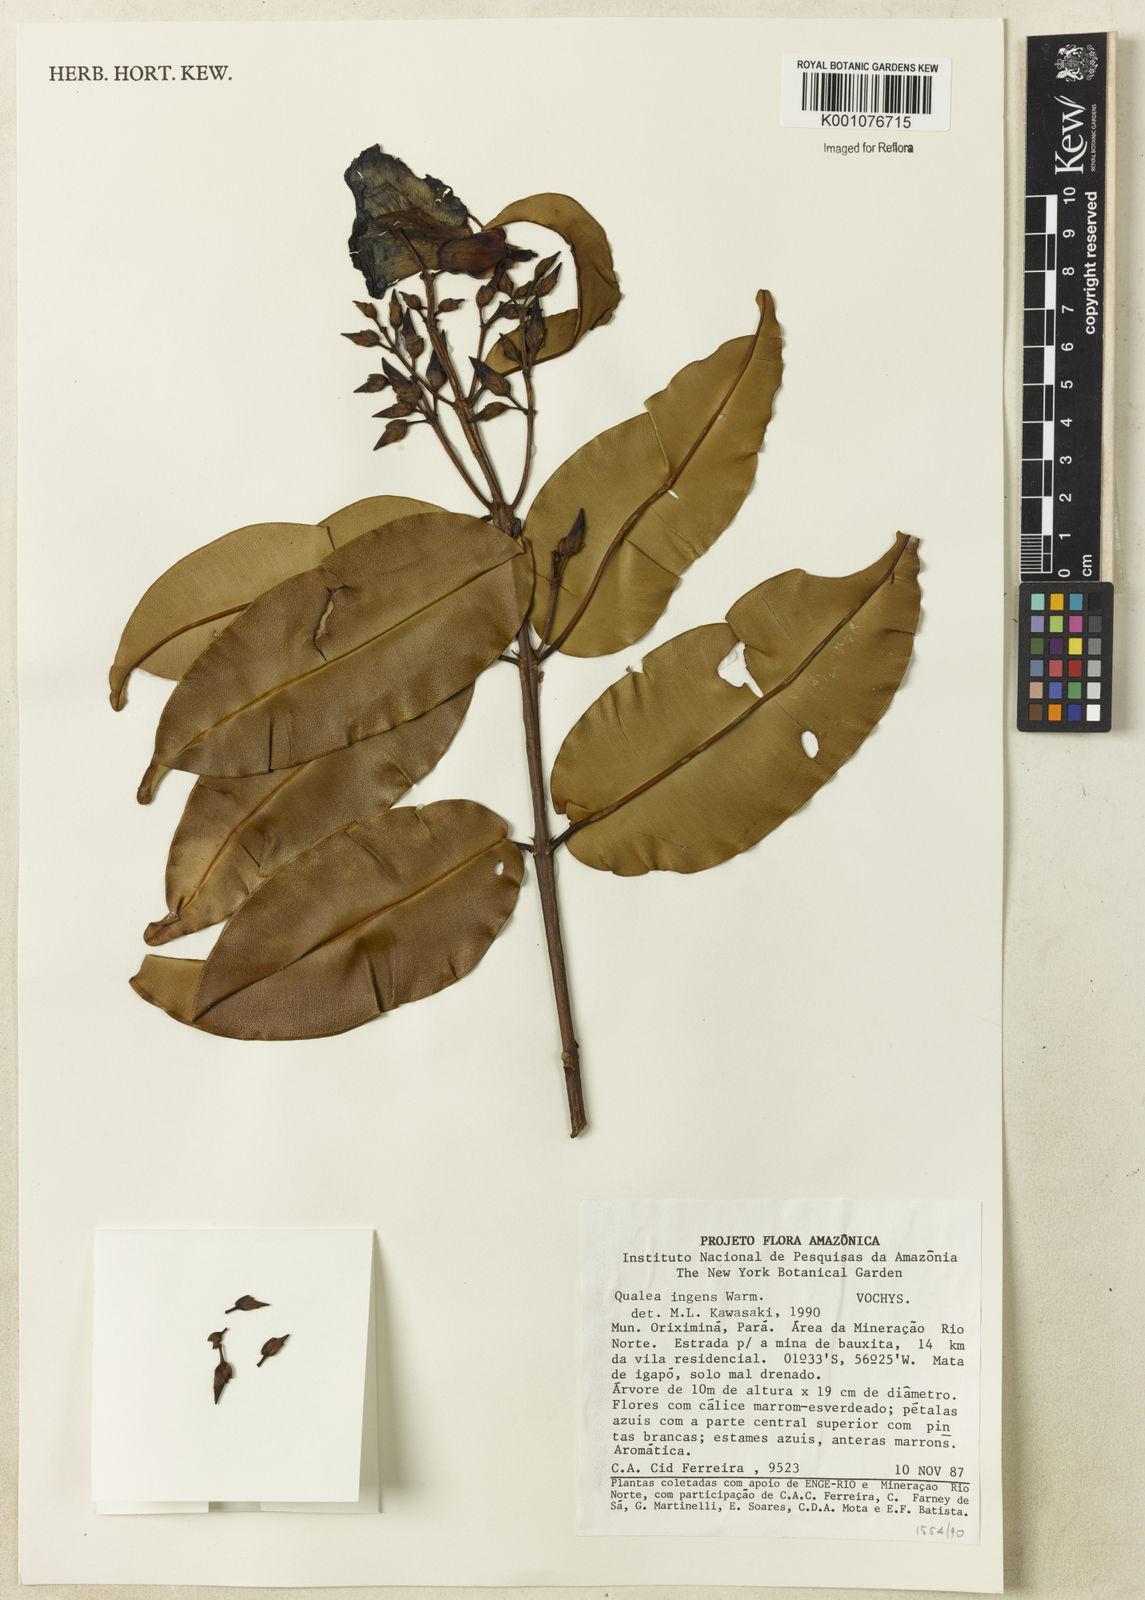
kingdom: Plantae
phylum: Tracheophyta
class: Magnoliopsida
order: Myrtales
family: Vochysiaceae
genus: Qualea
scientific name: Qualea ingens
